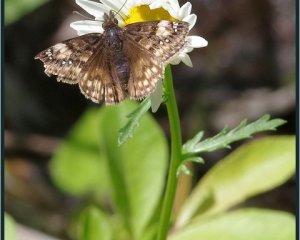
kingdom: Animalia
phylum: Arthropoda
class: Insecta
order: Lepidoptera
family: Hesperiidae
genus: Gesta
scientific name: Gesta
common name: Juvenal's Duskywing
